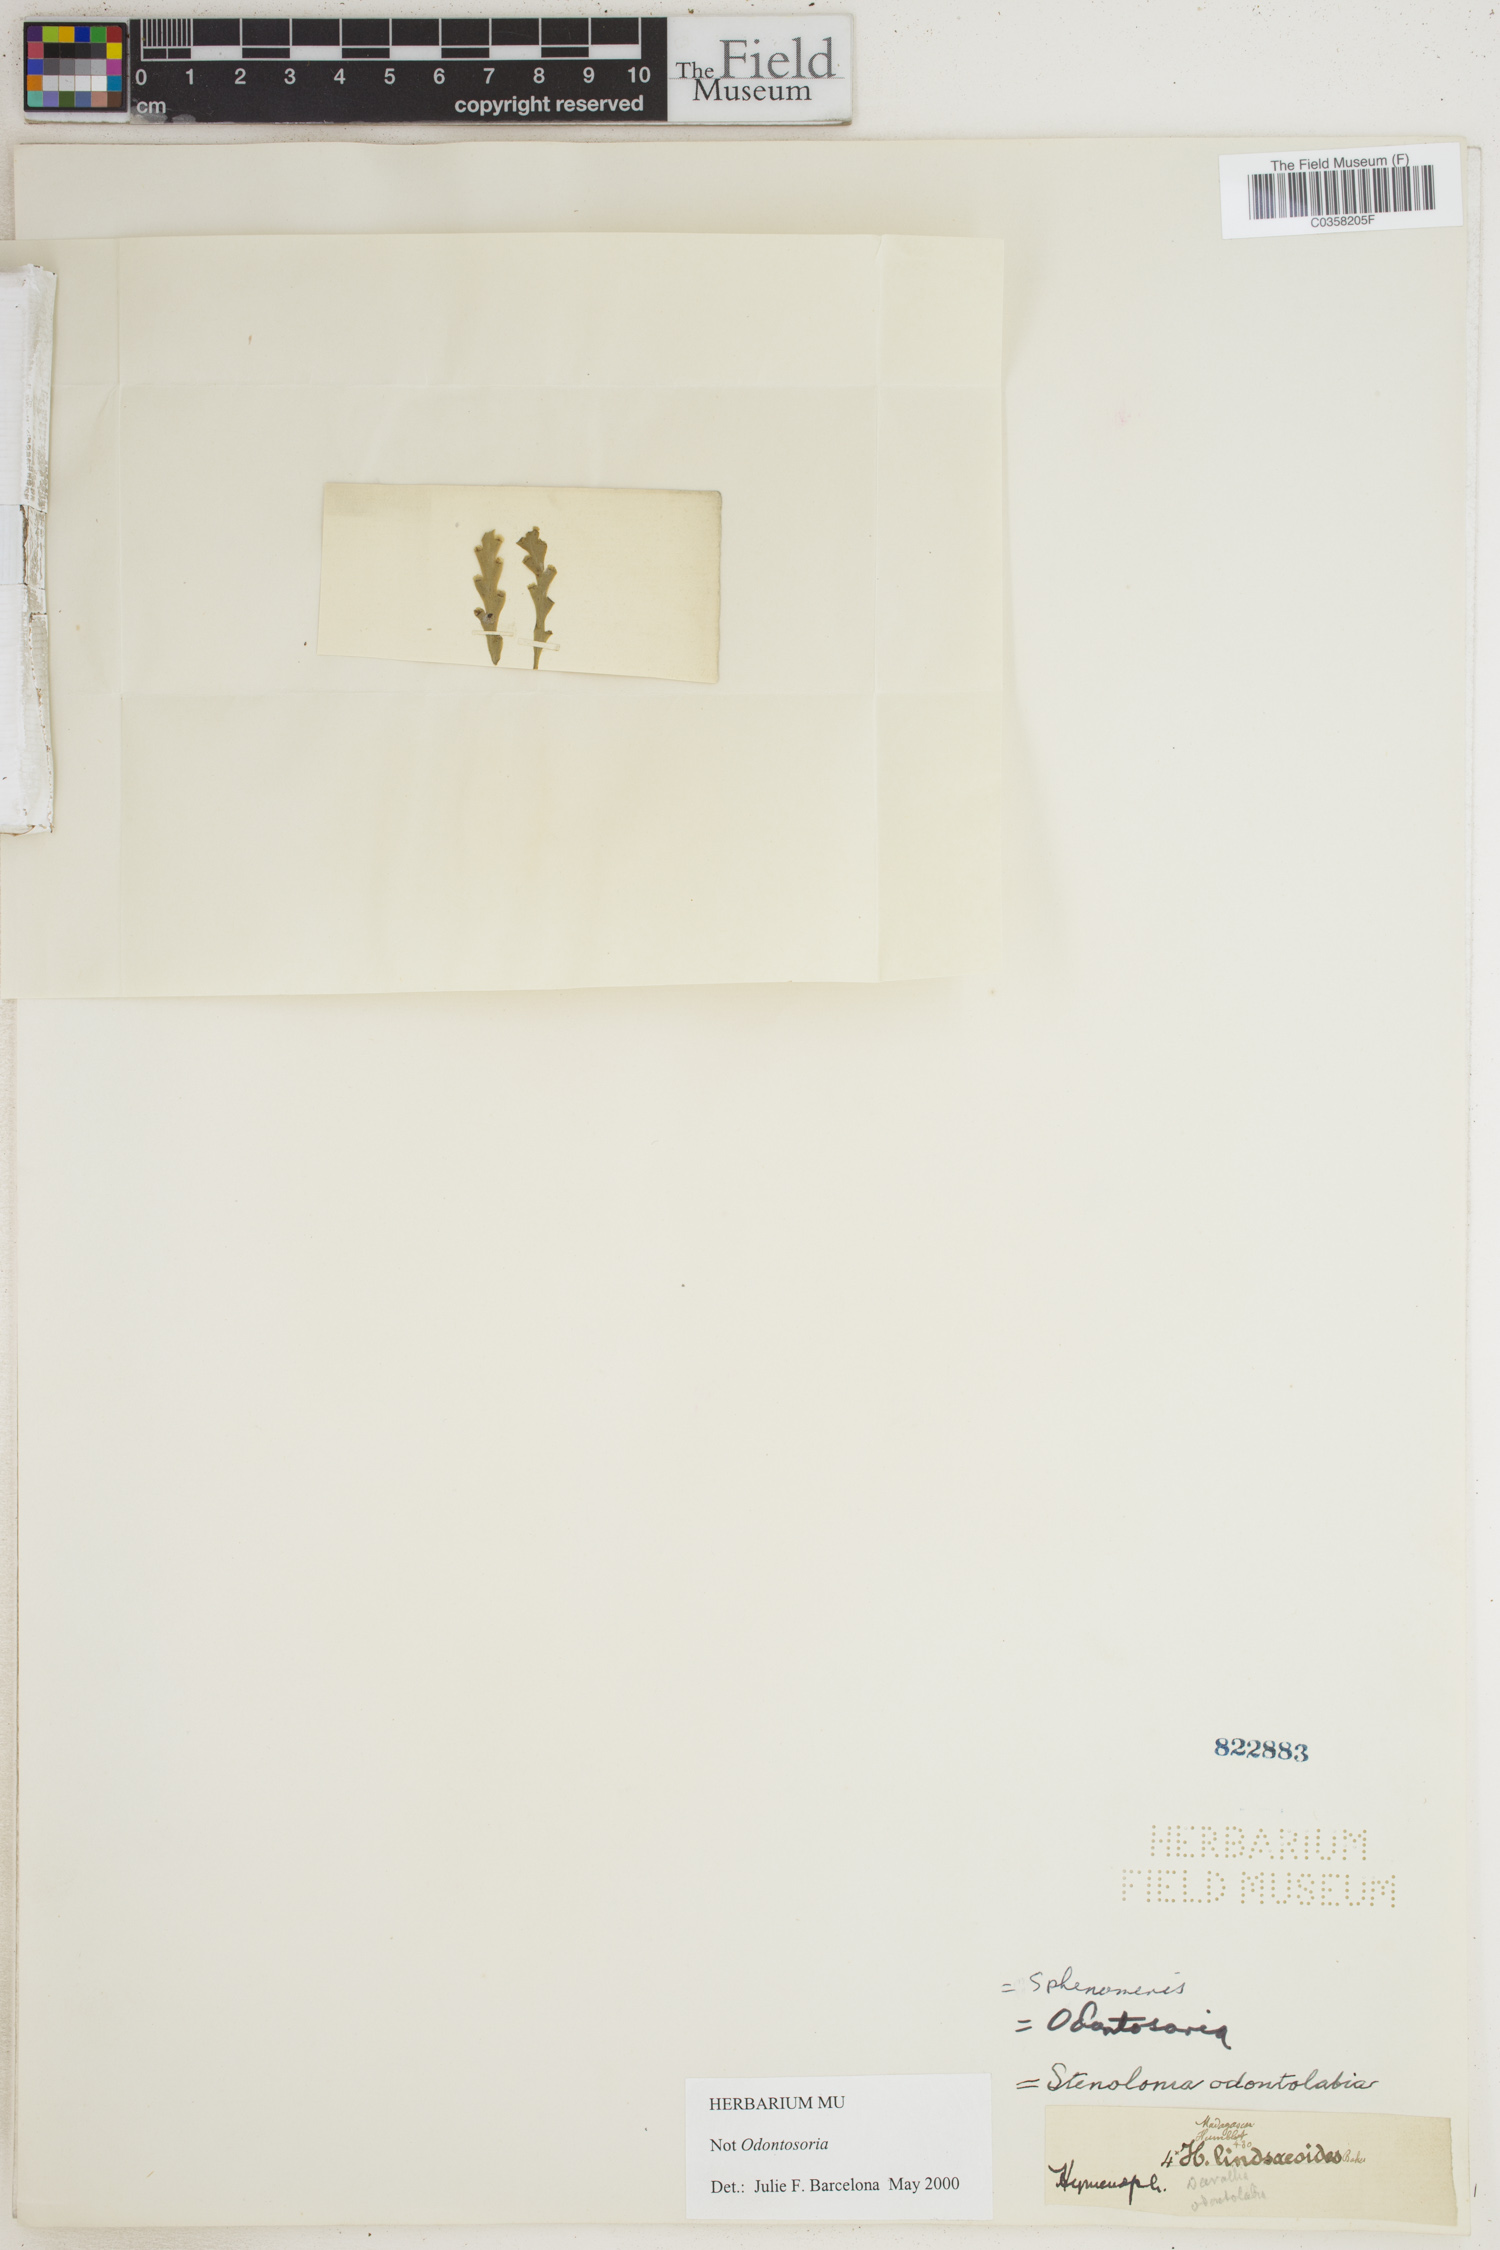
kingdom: Plantae
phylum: Tracheophyta
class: Polypodiopsida
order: Polypodiales
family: Lindsaeaceae
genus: Sphenomeris
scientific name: Sphenomeris
